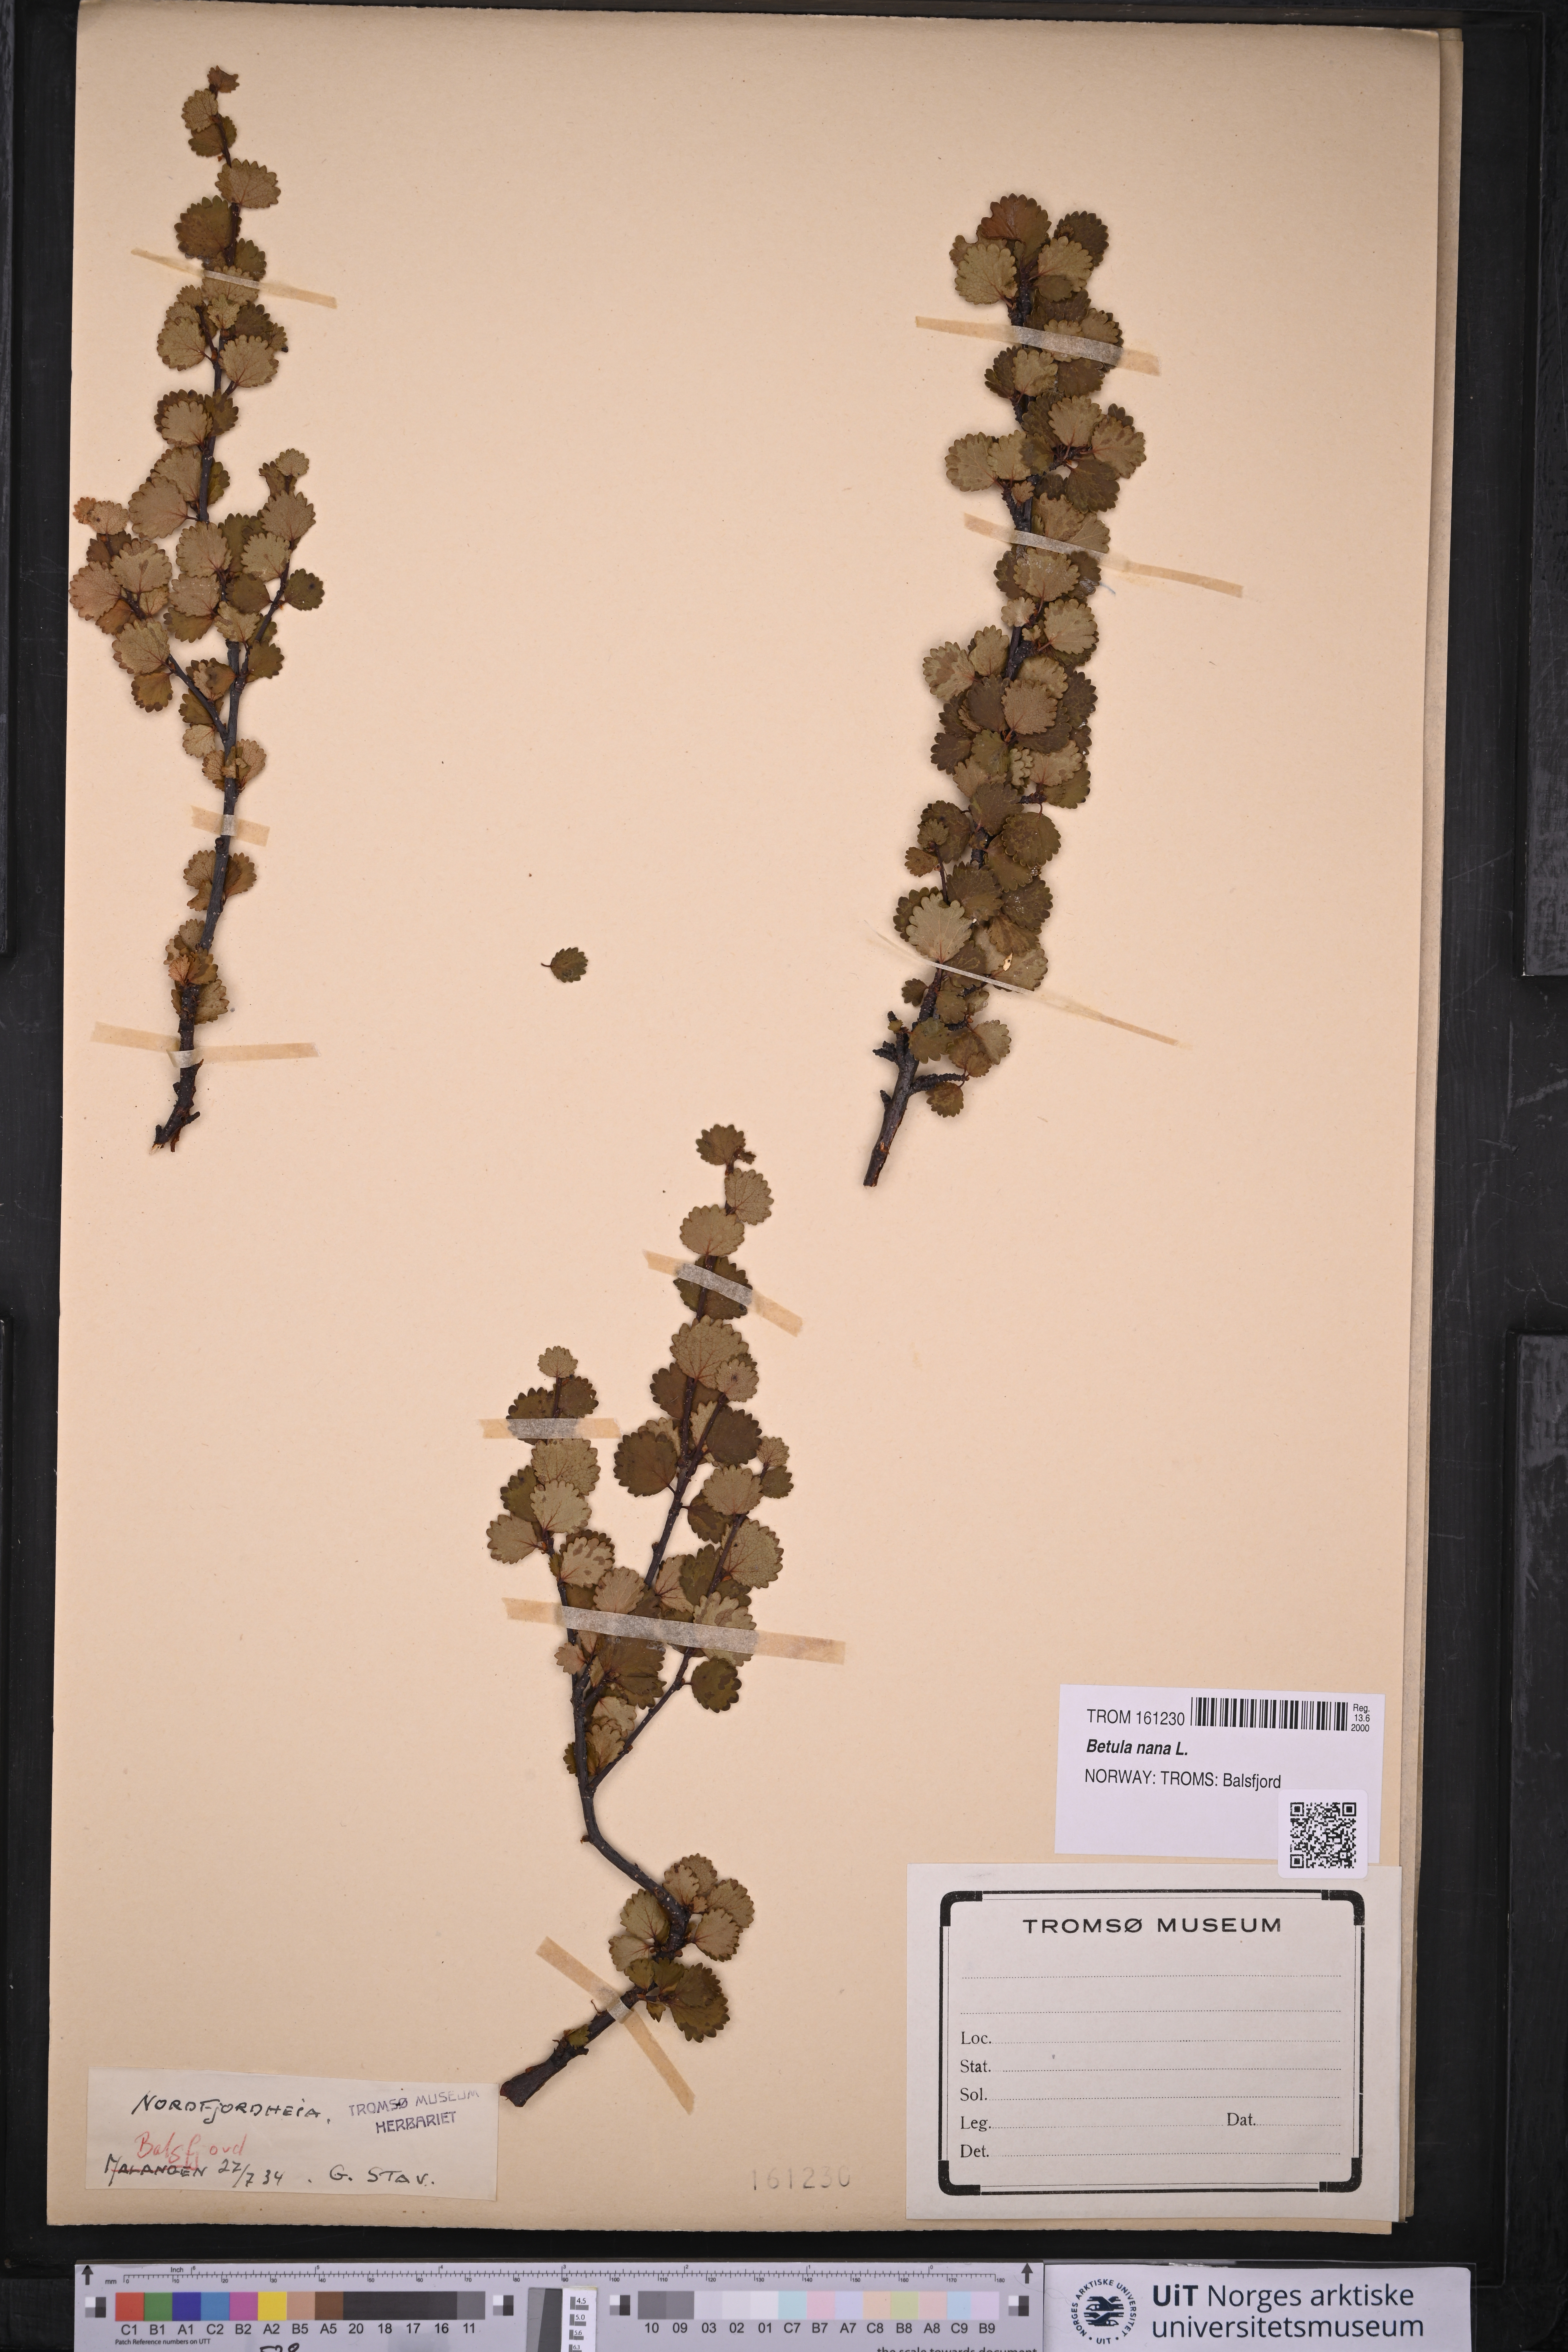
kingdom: Plantae
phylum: Tracheophyta
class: Magnoliopsida
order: Fagales
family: Betulaceae
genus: Betula
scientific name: Betula nana
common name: Arctic dwarf birch
